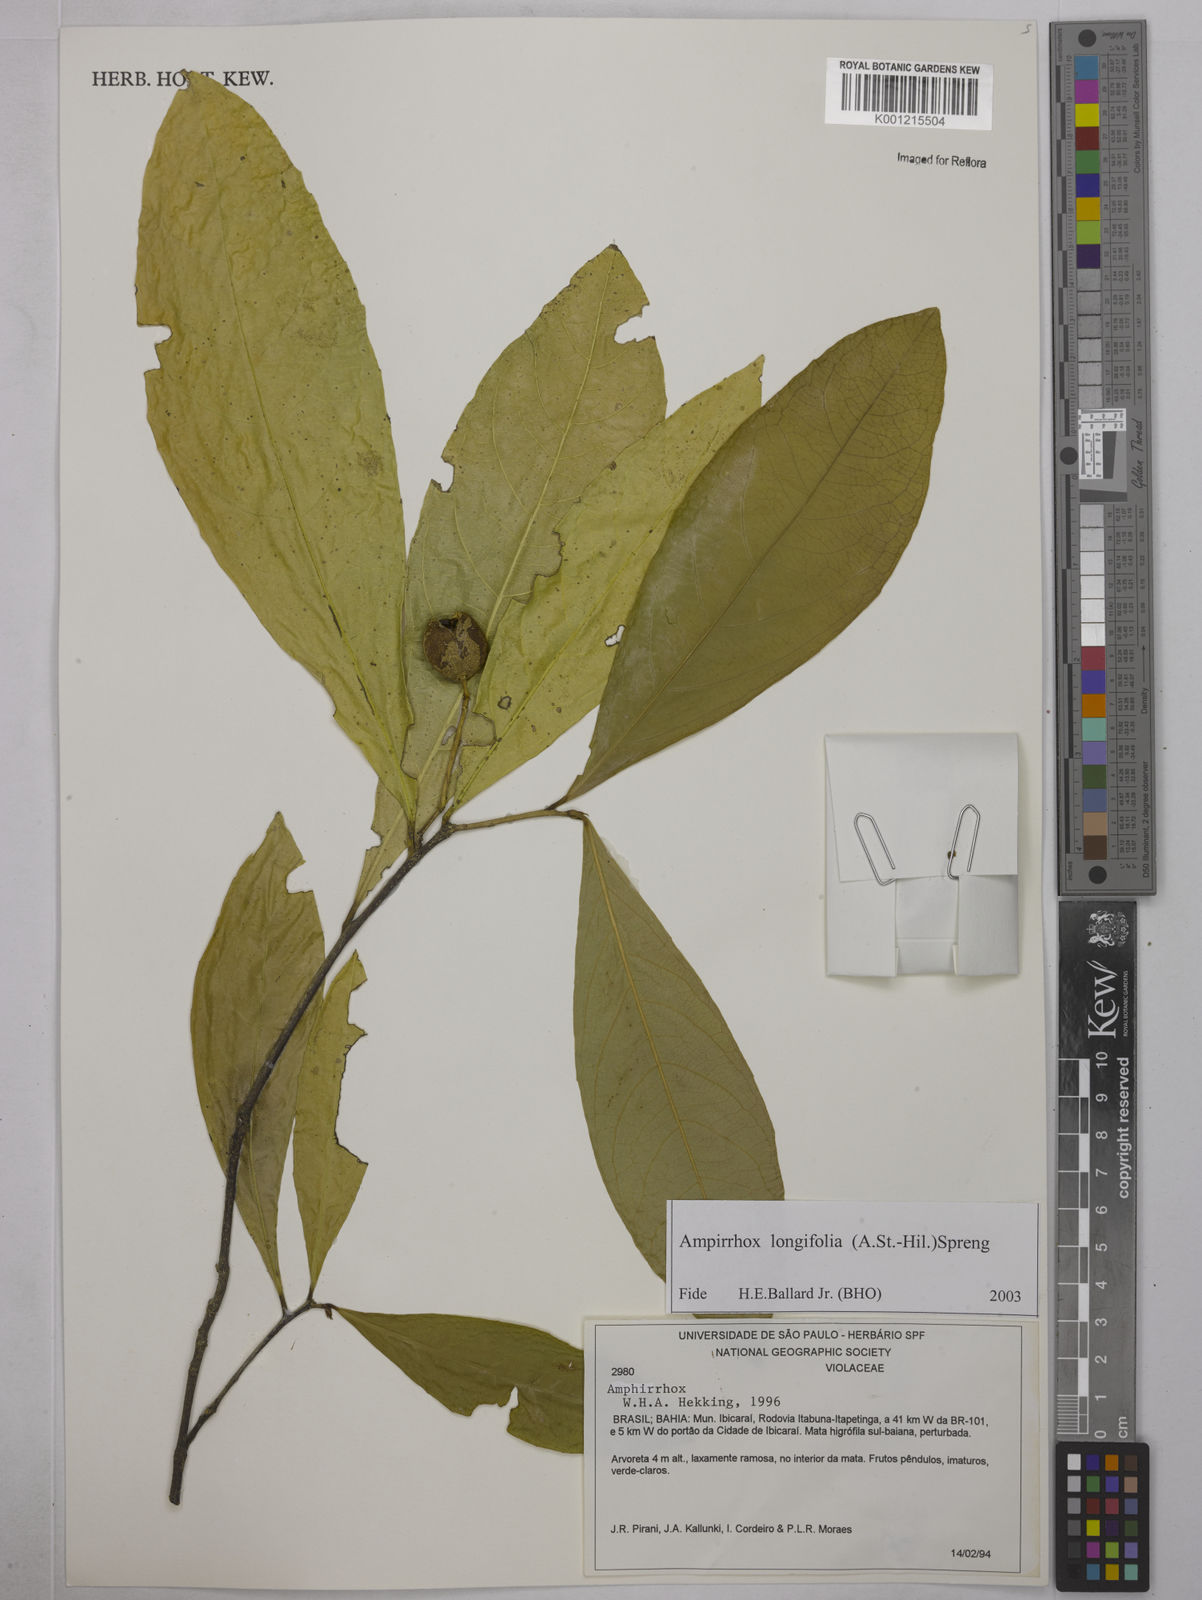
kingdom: Plantae
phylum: Tracheophyta
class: Magnoliopsida
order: Malpighiales
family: Violaceae
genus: Amphirrhox
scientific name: Amphirrhox longifolia
